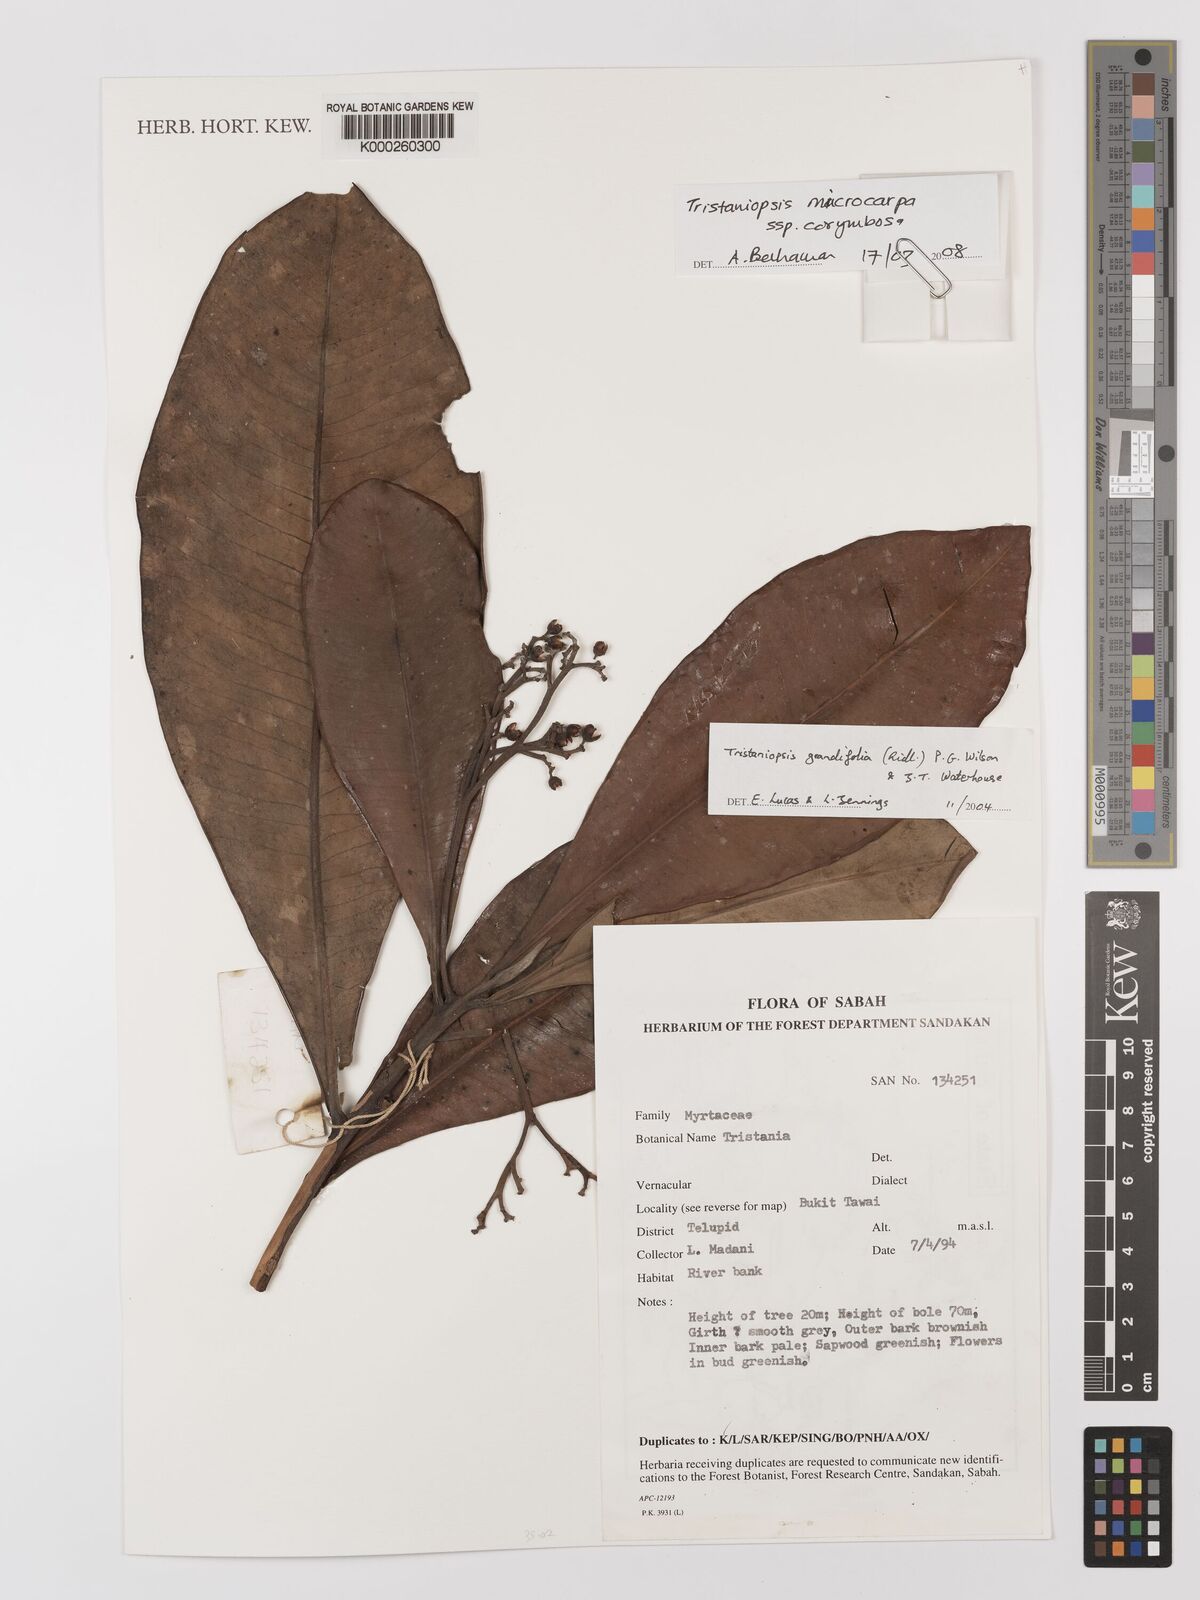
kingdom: Plantae
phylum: Tracheophyta
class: Magnoliopsida
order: Myrtales
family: Myrtaceae
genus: Tristaniopsis
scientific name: Tristaniopsis merguensis
